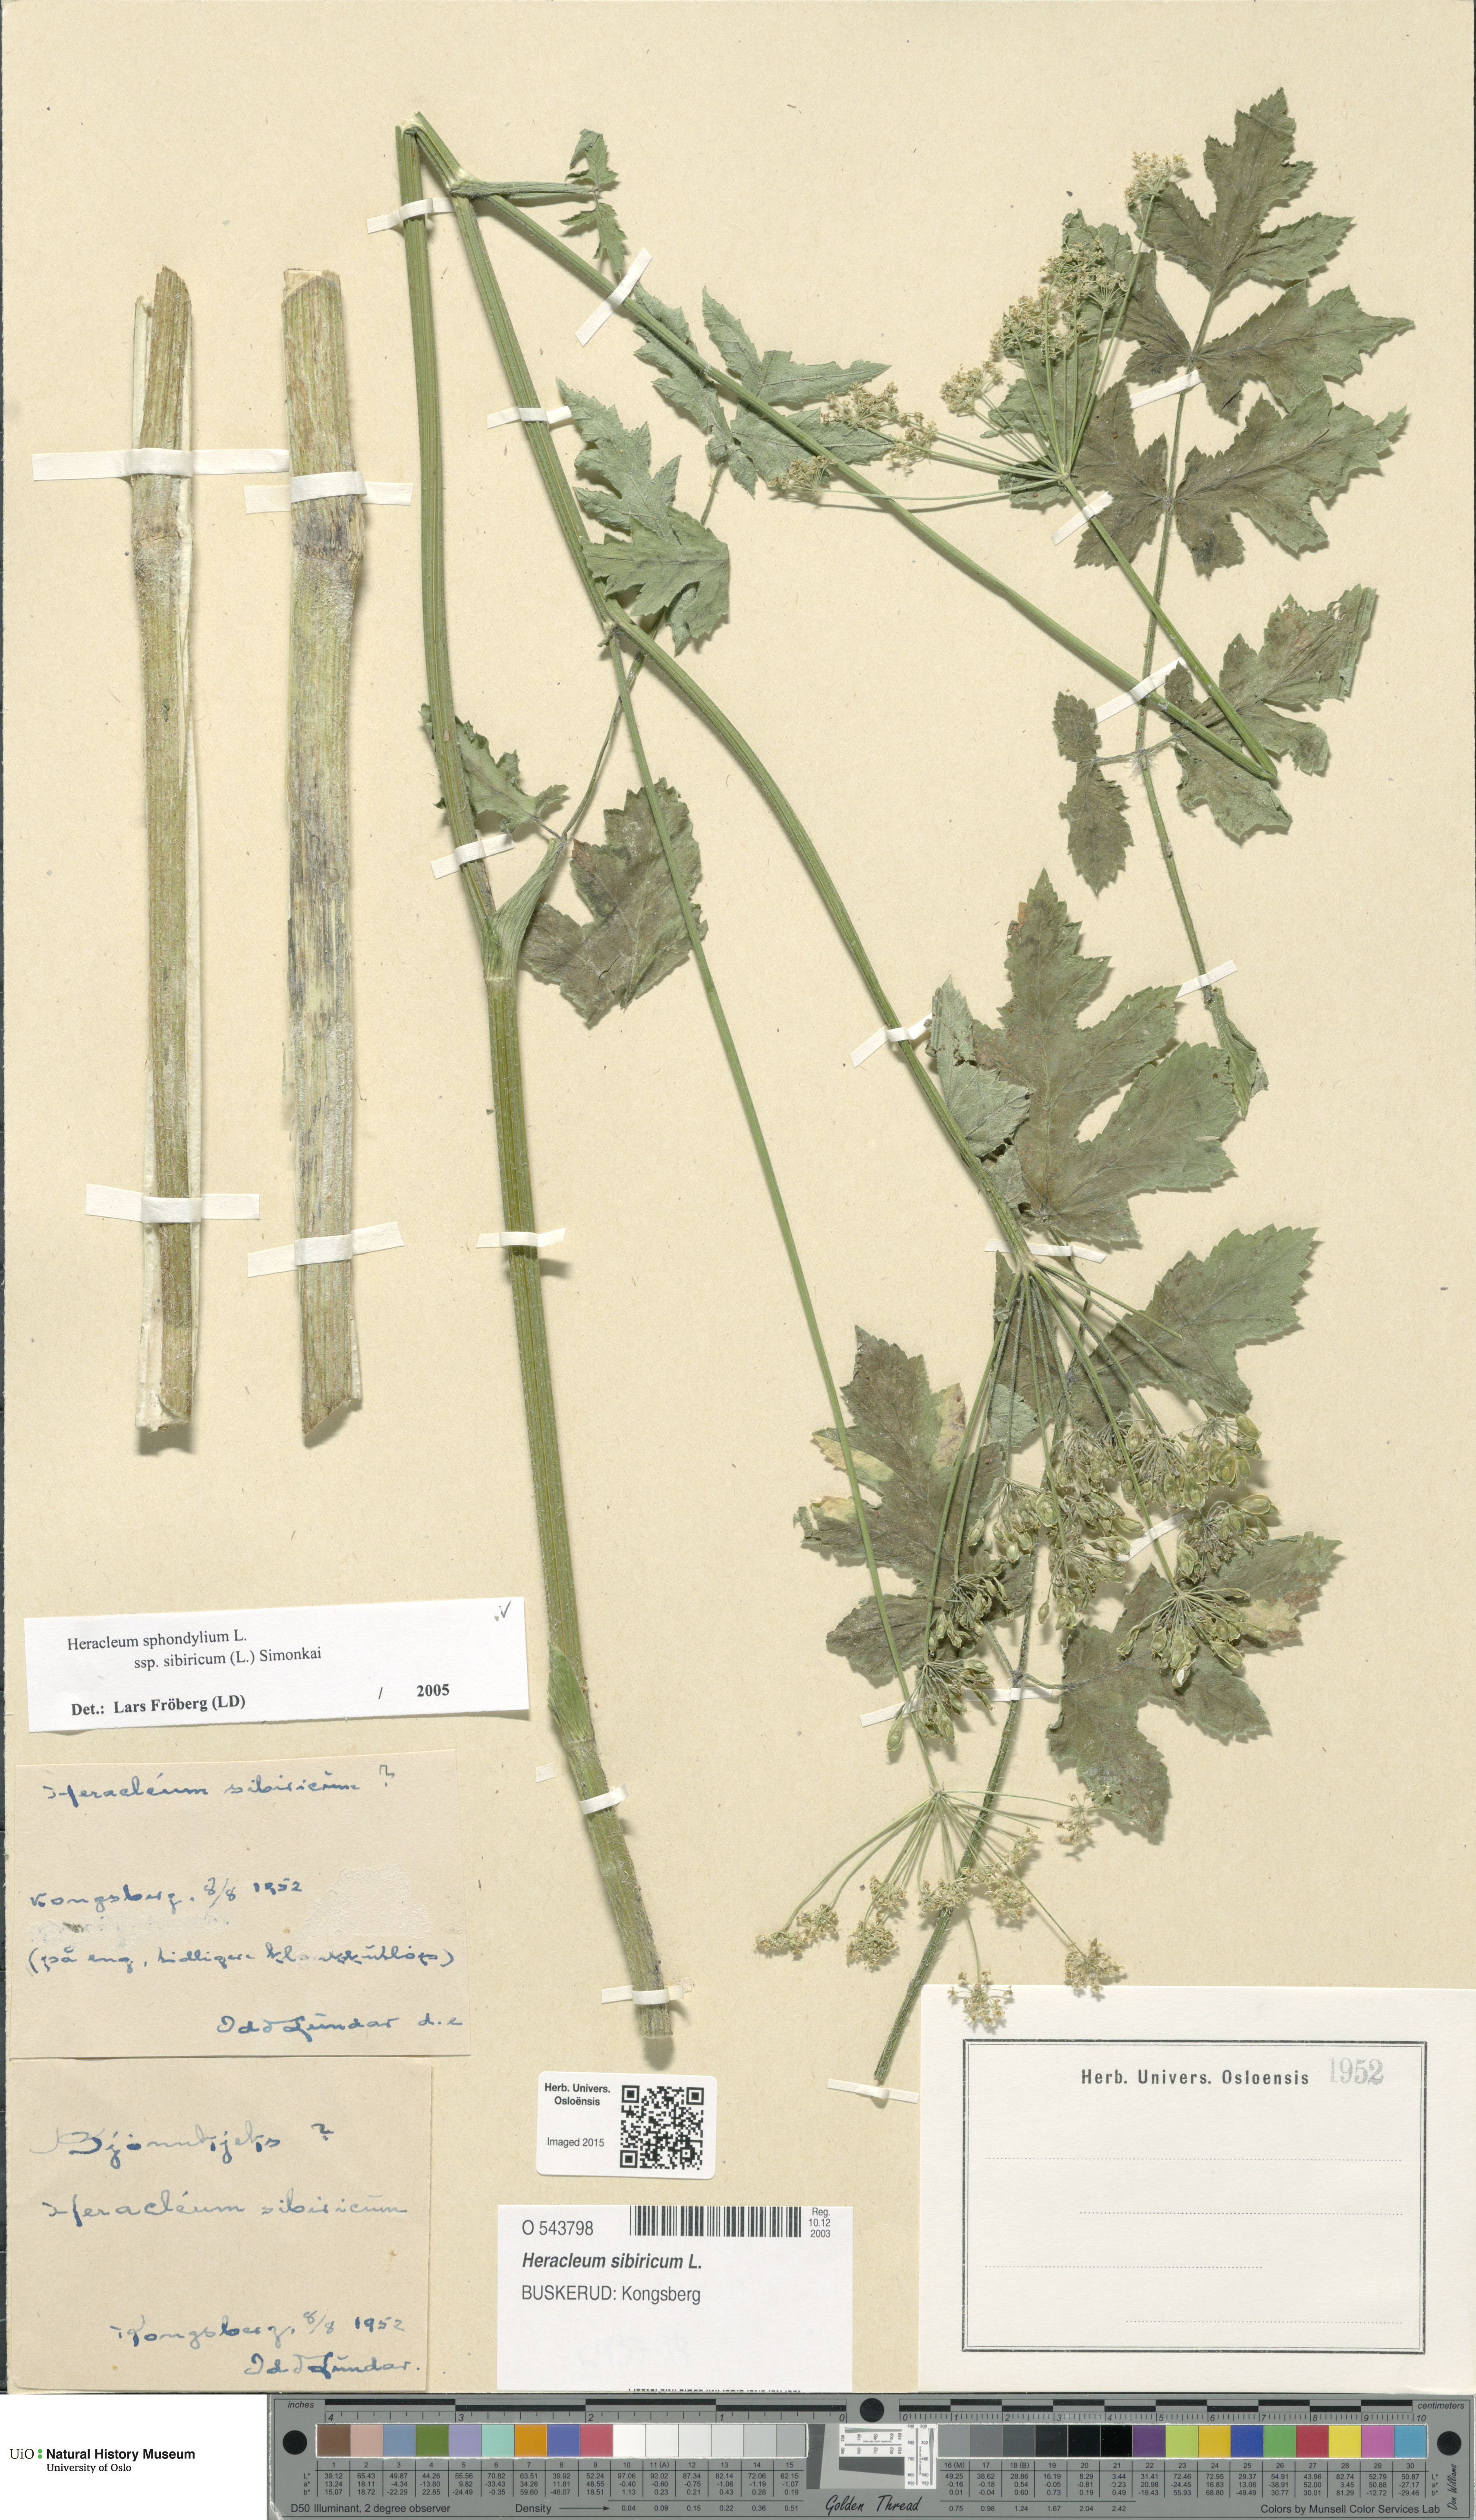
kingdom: Plantae
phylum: Tracheophyta
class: Magnoliopsida
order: Apiales
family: Apiaceae
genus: Heracleum
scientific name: Heracleum sphondylium
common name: Hogweed
